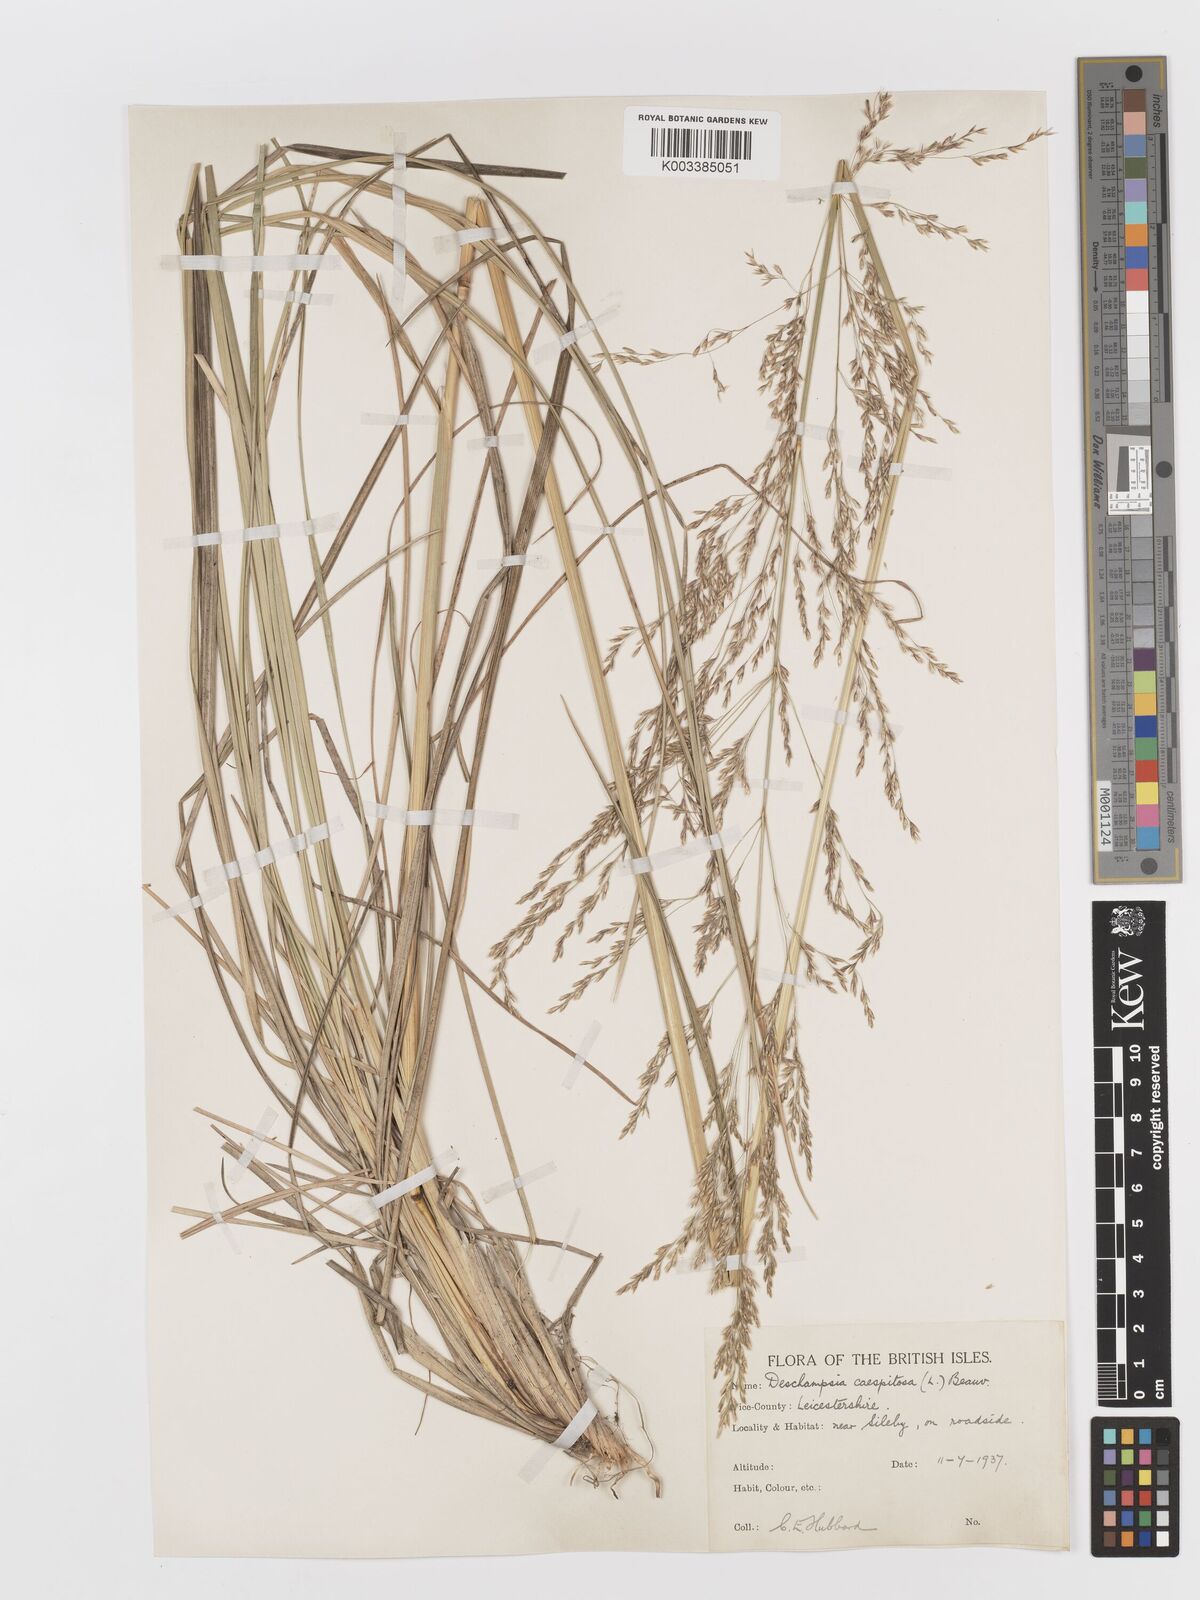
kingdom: Plantae
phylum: Tracheophyta
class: Liliopsida
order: Poales
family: Poaceae
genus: Deschampsia
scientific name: Deschampsia cespitosa
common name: Tufted hair-grass
